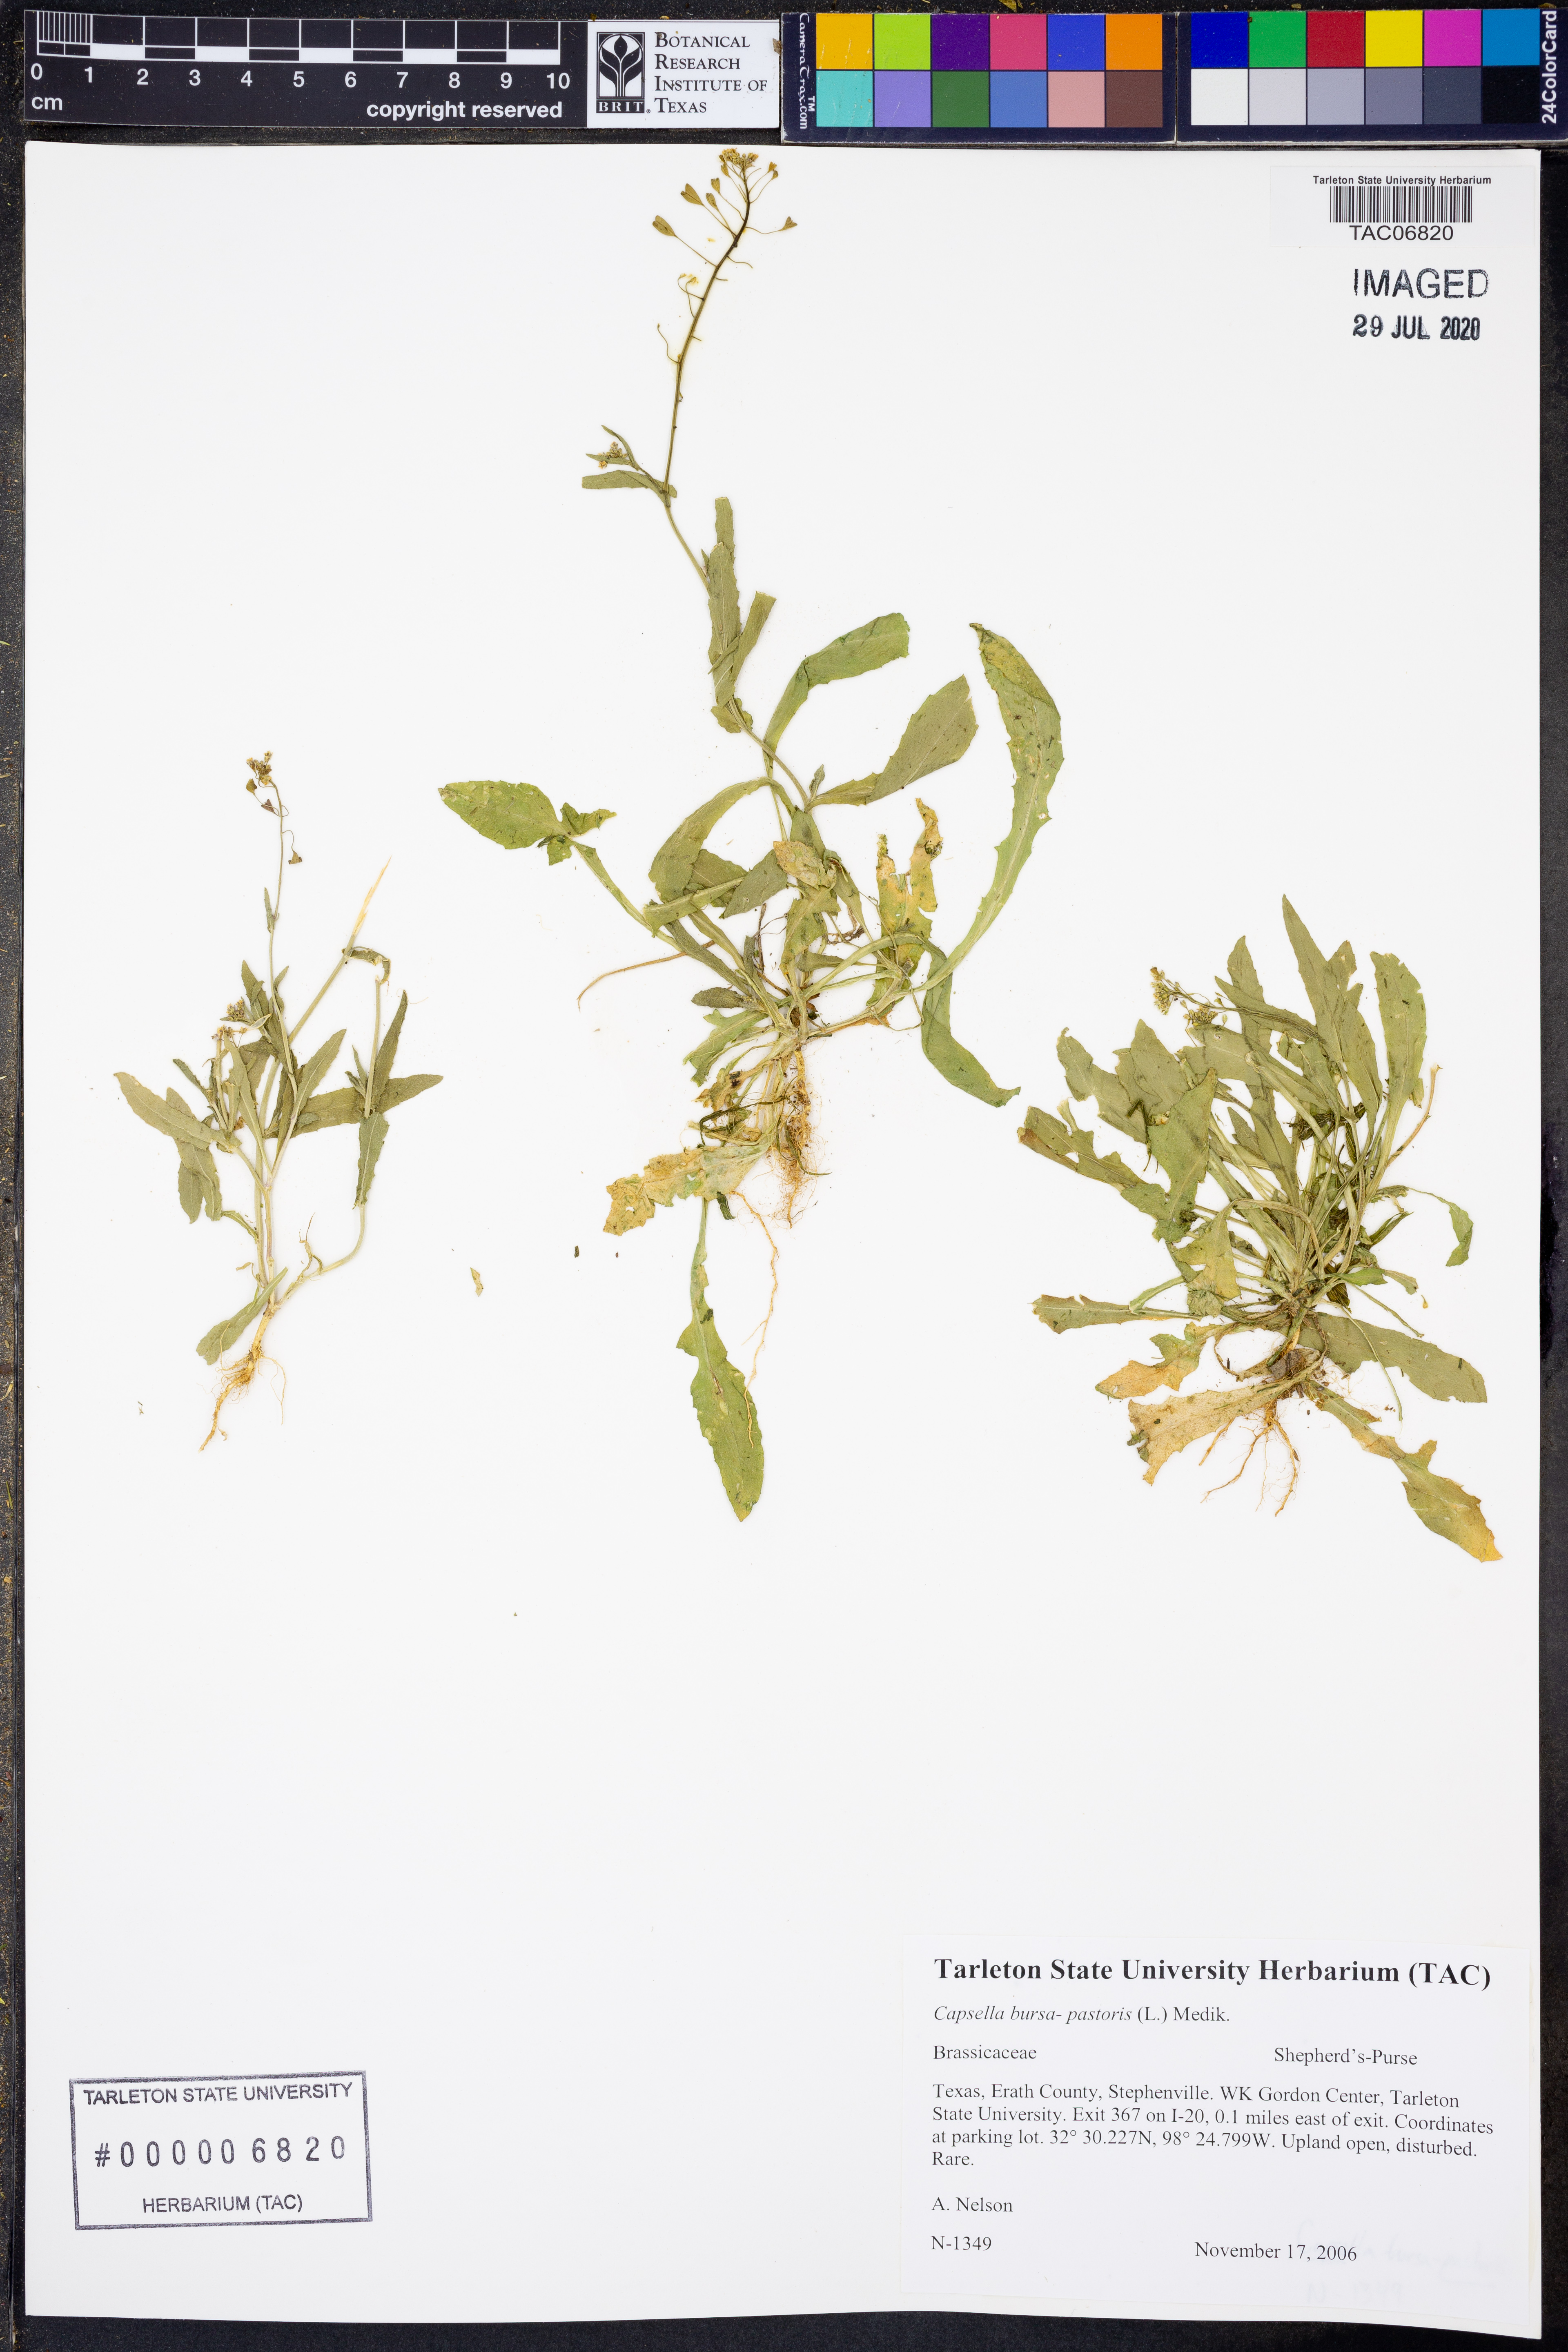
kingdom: Plantae
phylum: Tracheophyta
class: Magnoliopsida
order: Brassicales
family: Brassicaceae
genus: Capsella
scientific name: Capsella bursa-pastoris
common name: Shepherd's purse
